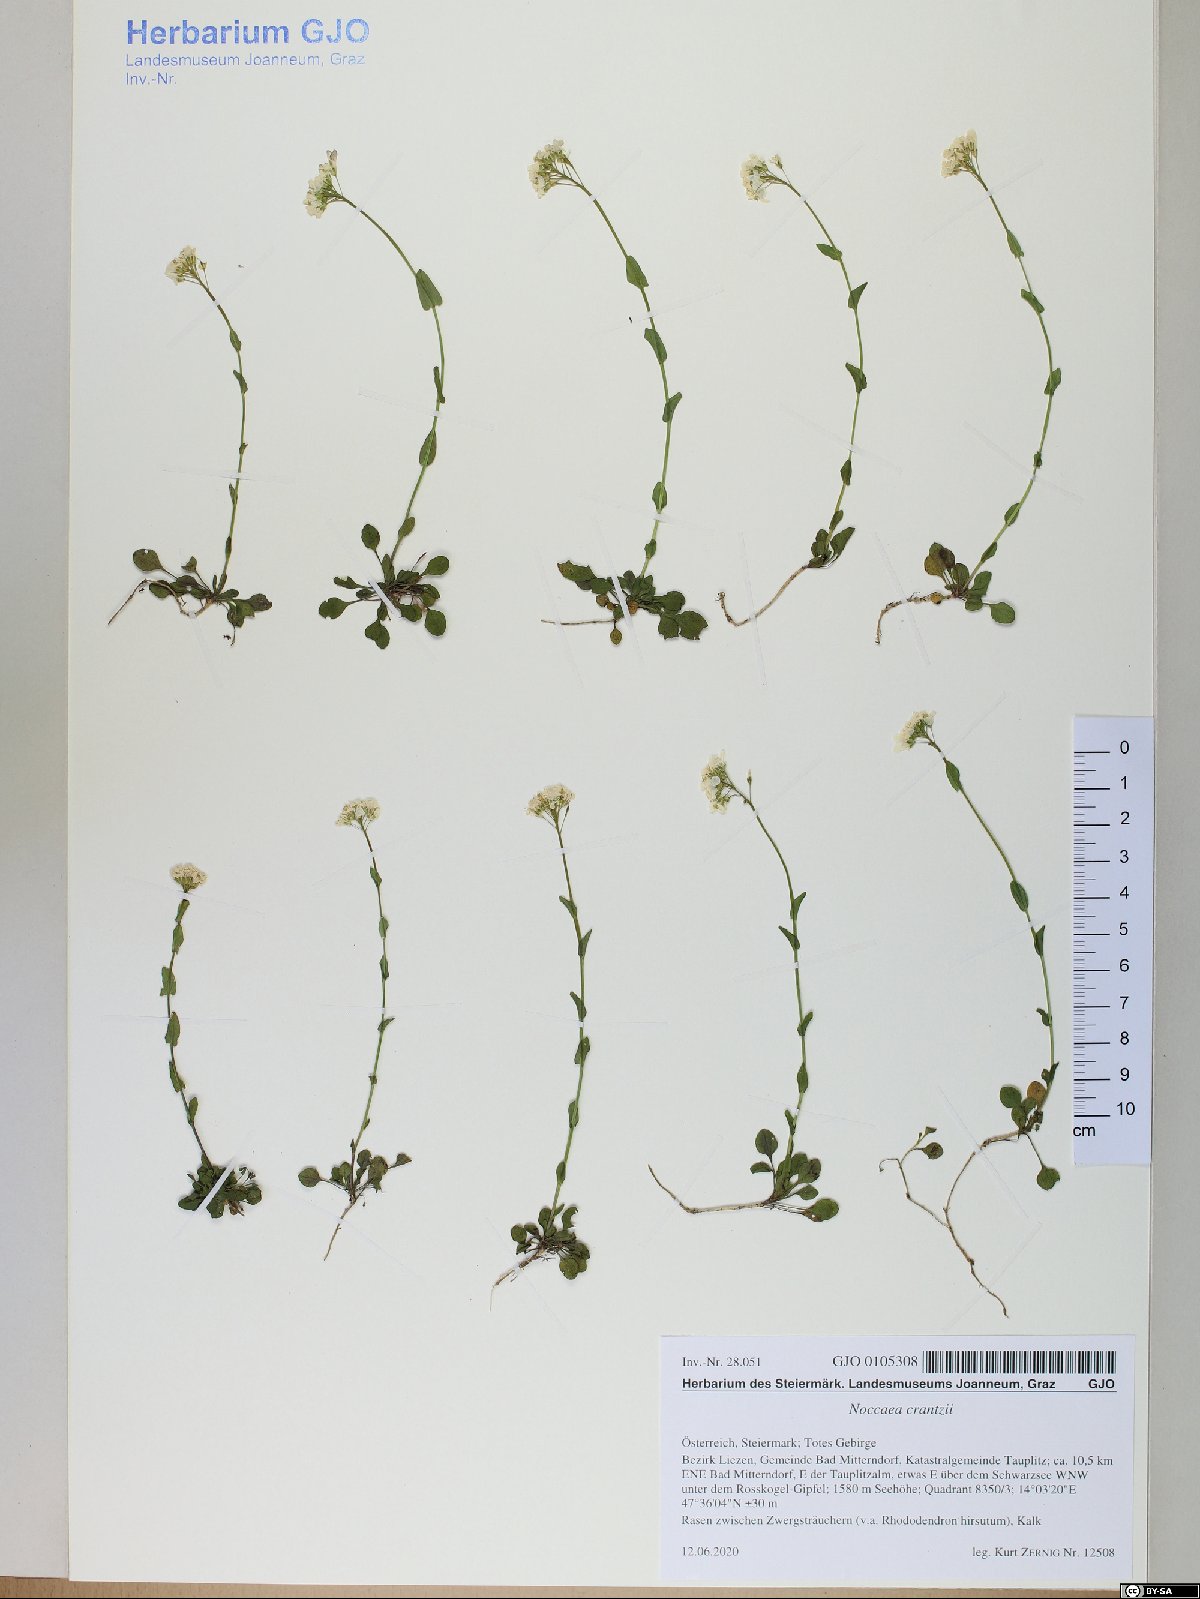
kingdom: Plantae
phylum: Tracheophyta
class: Magnoliopsida
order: Brassicales
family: Brassicaceae
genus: Noccaea
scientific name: Noccaea alpestris
